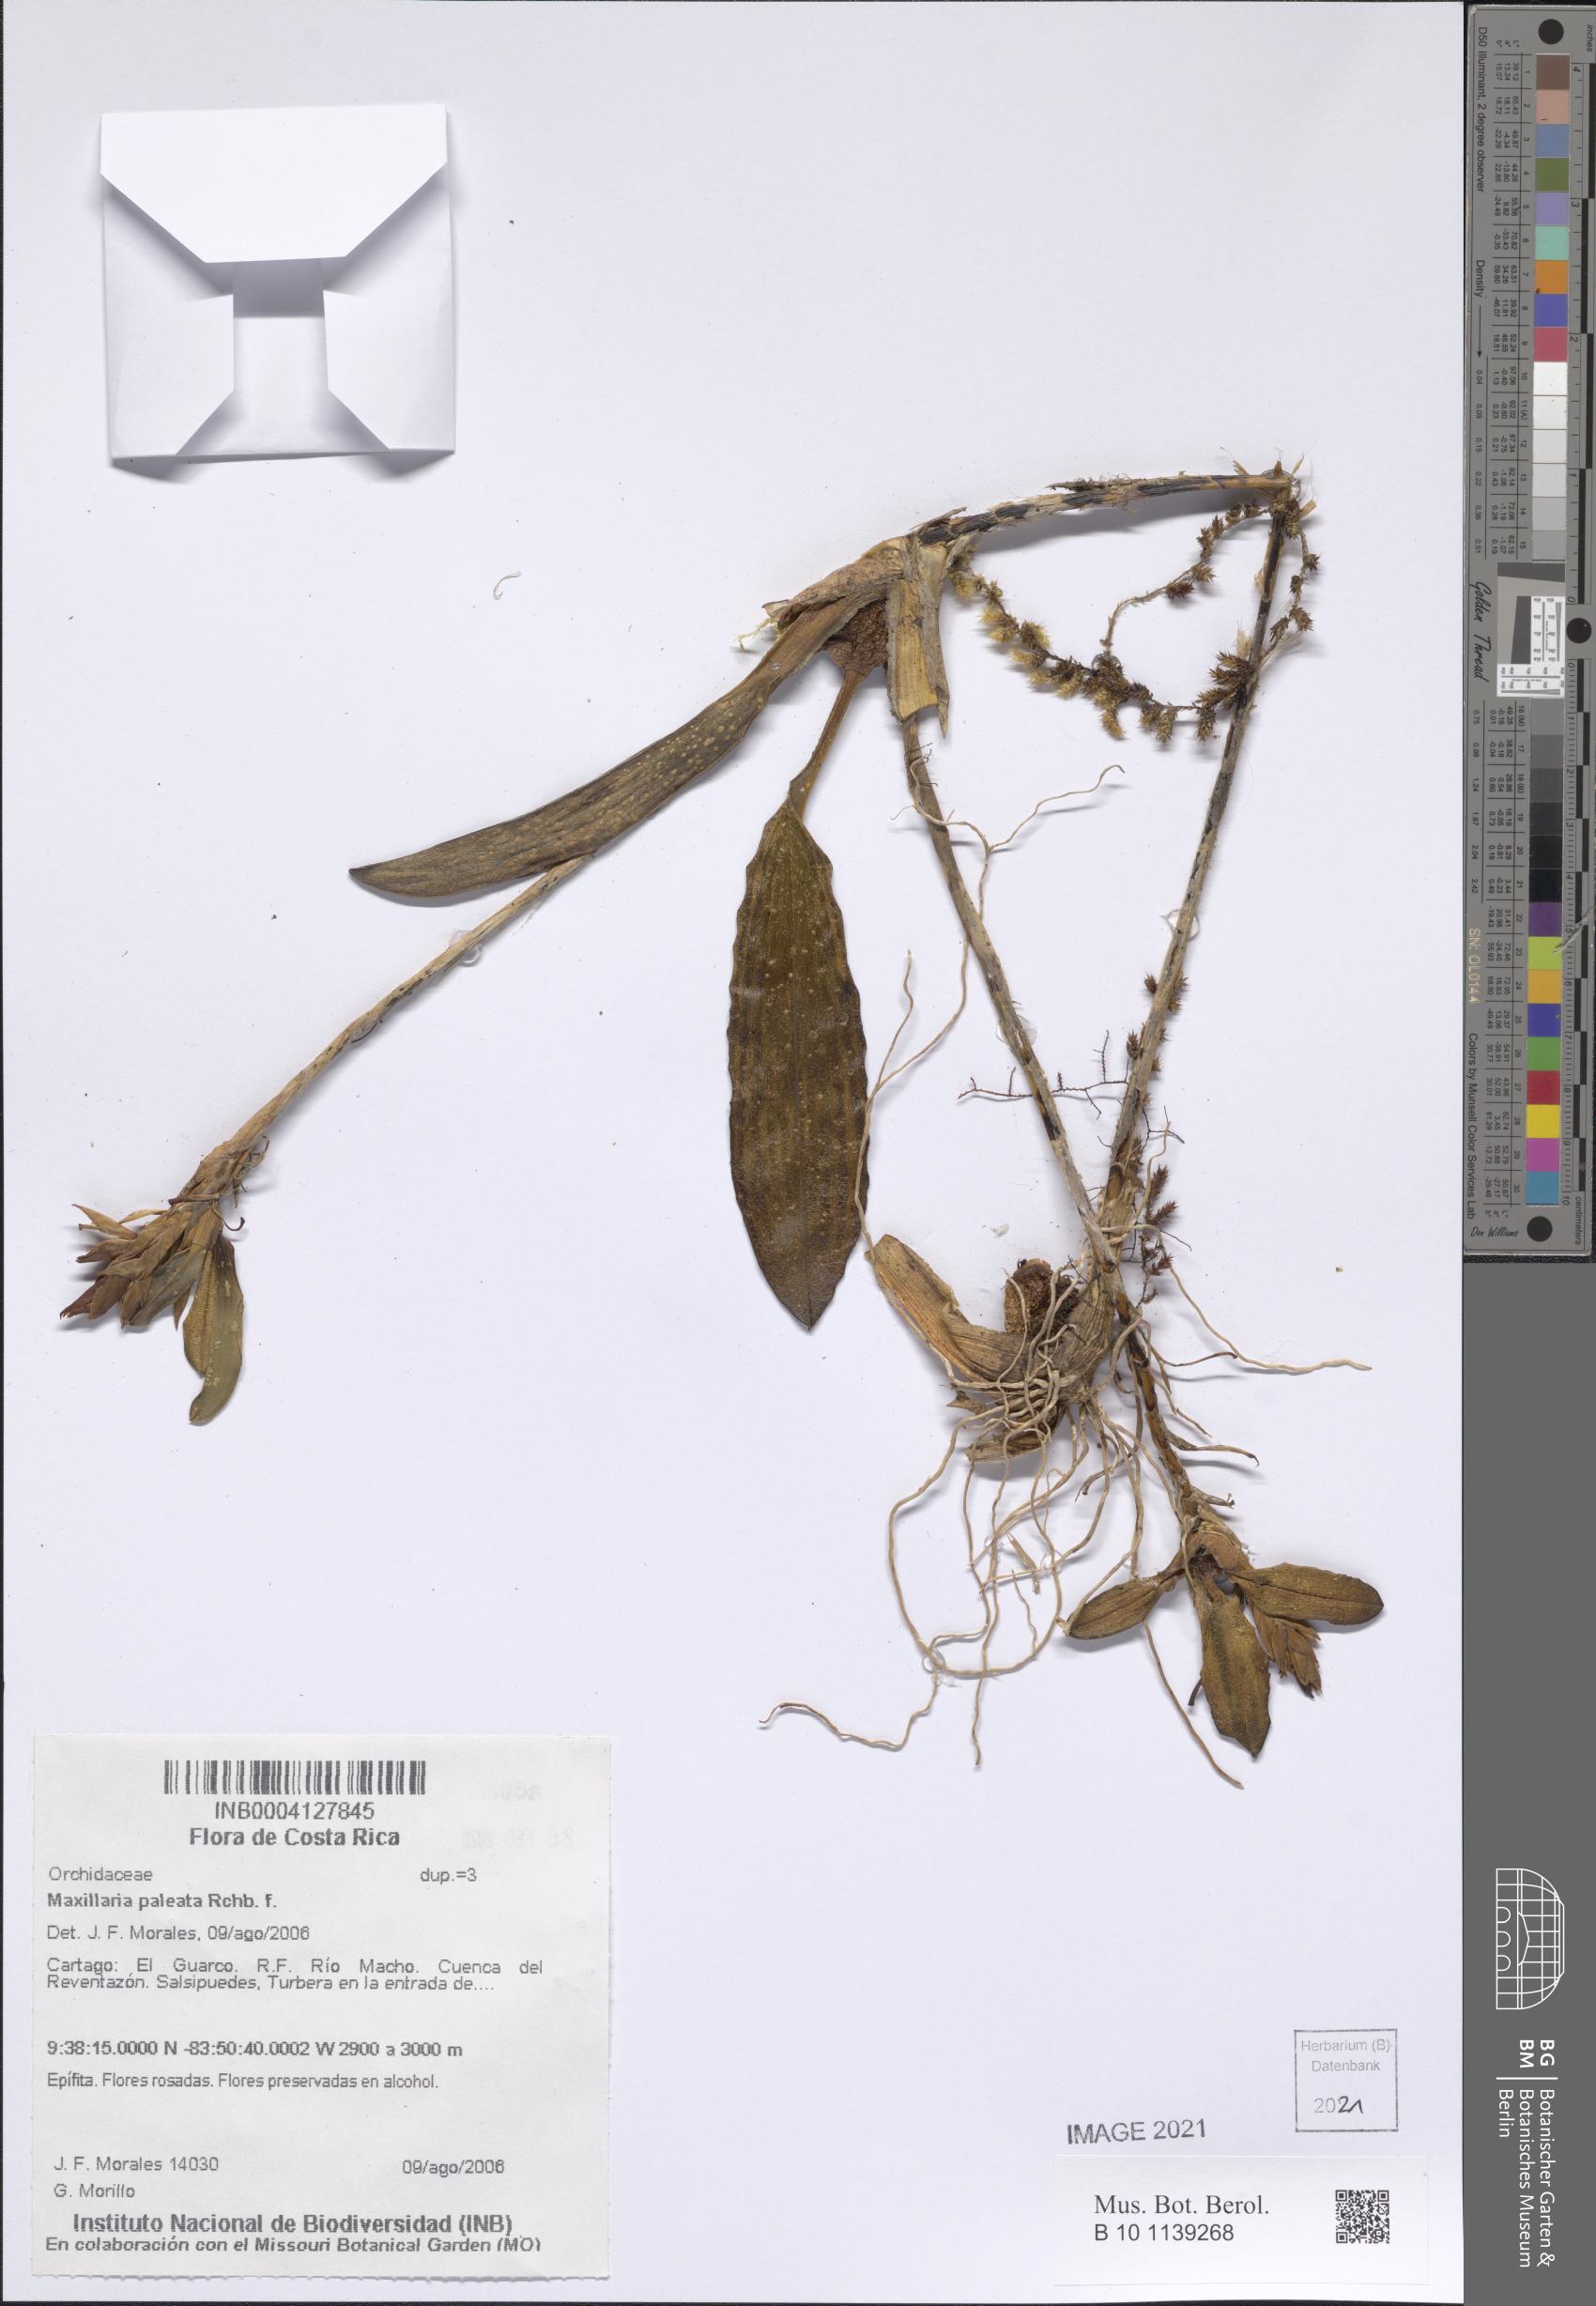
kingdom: Plantae
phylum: Tracheophyta
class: Liliopsida
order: Asparagales
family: Orchidaceae
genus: Maxillaria
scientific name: Maxillaria paleata
